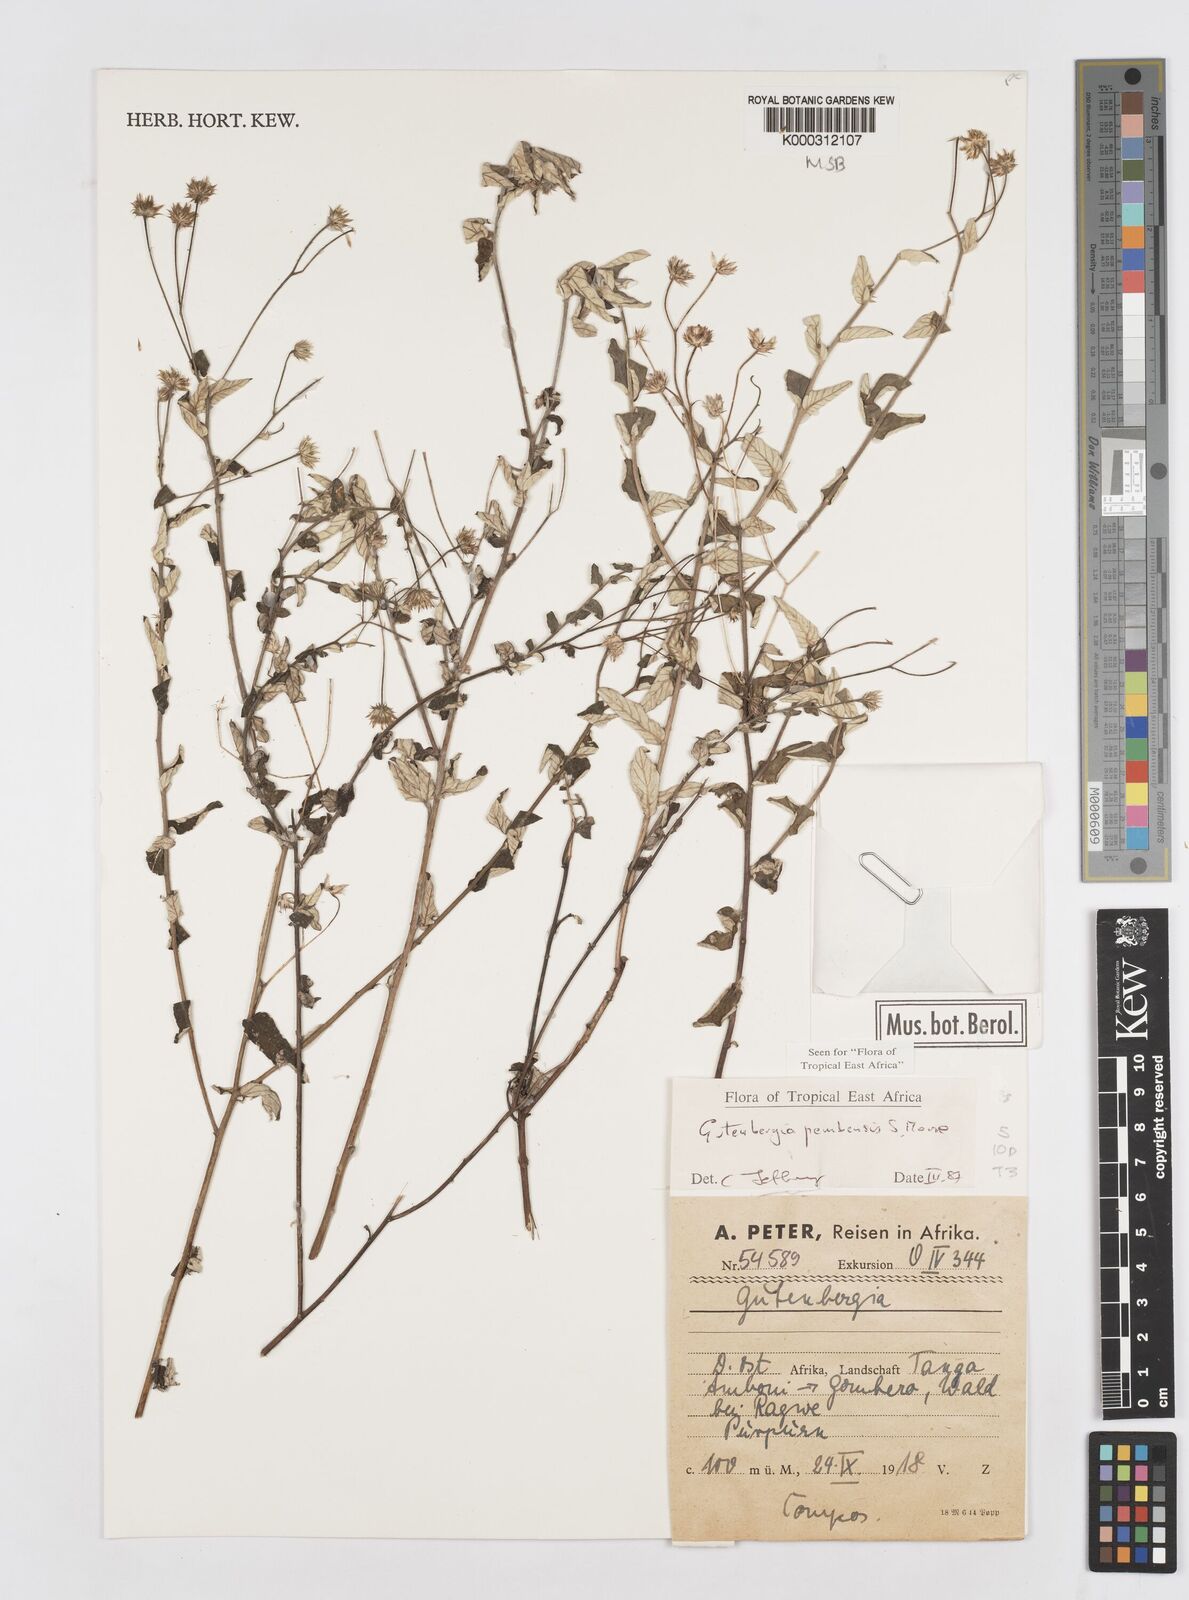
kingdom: Plantae
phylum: Tracheophyta
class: Magnoliopsida
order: Asterales
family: Asteraceae
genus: Gutenbergia
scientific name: Gutenbergia pembensis
